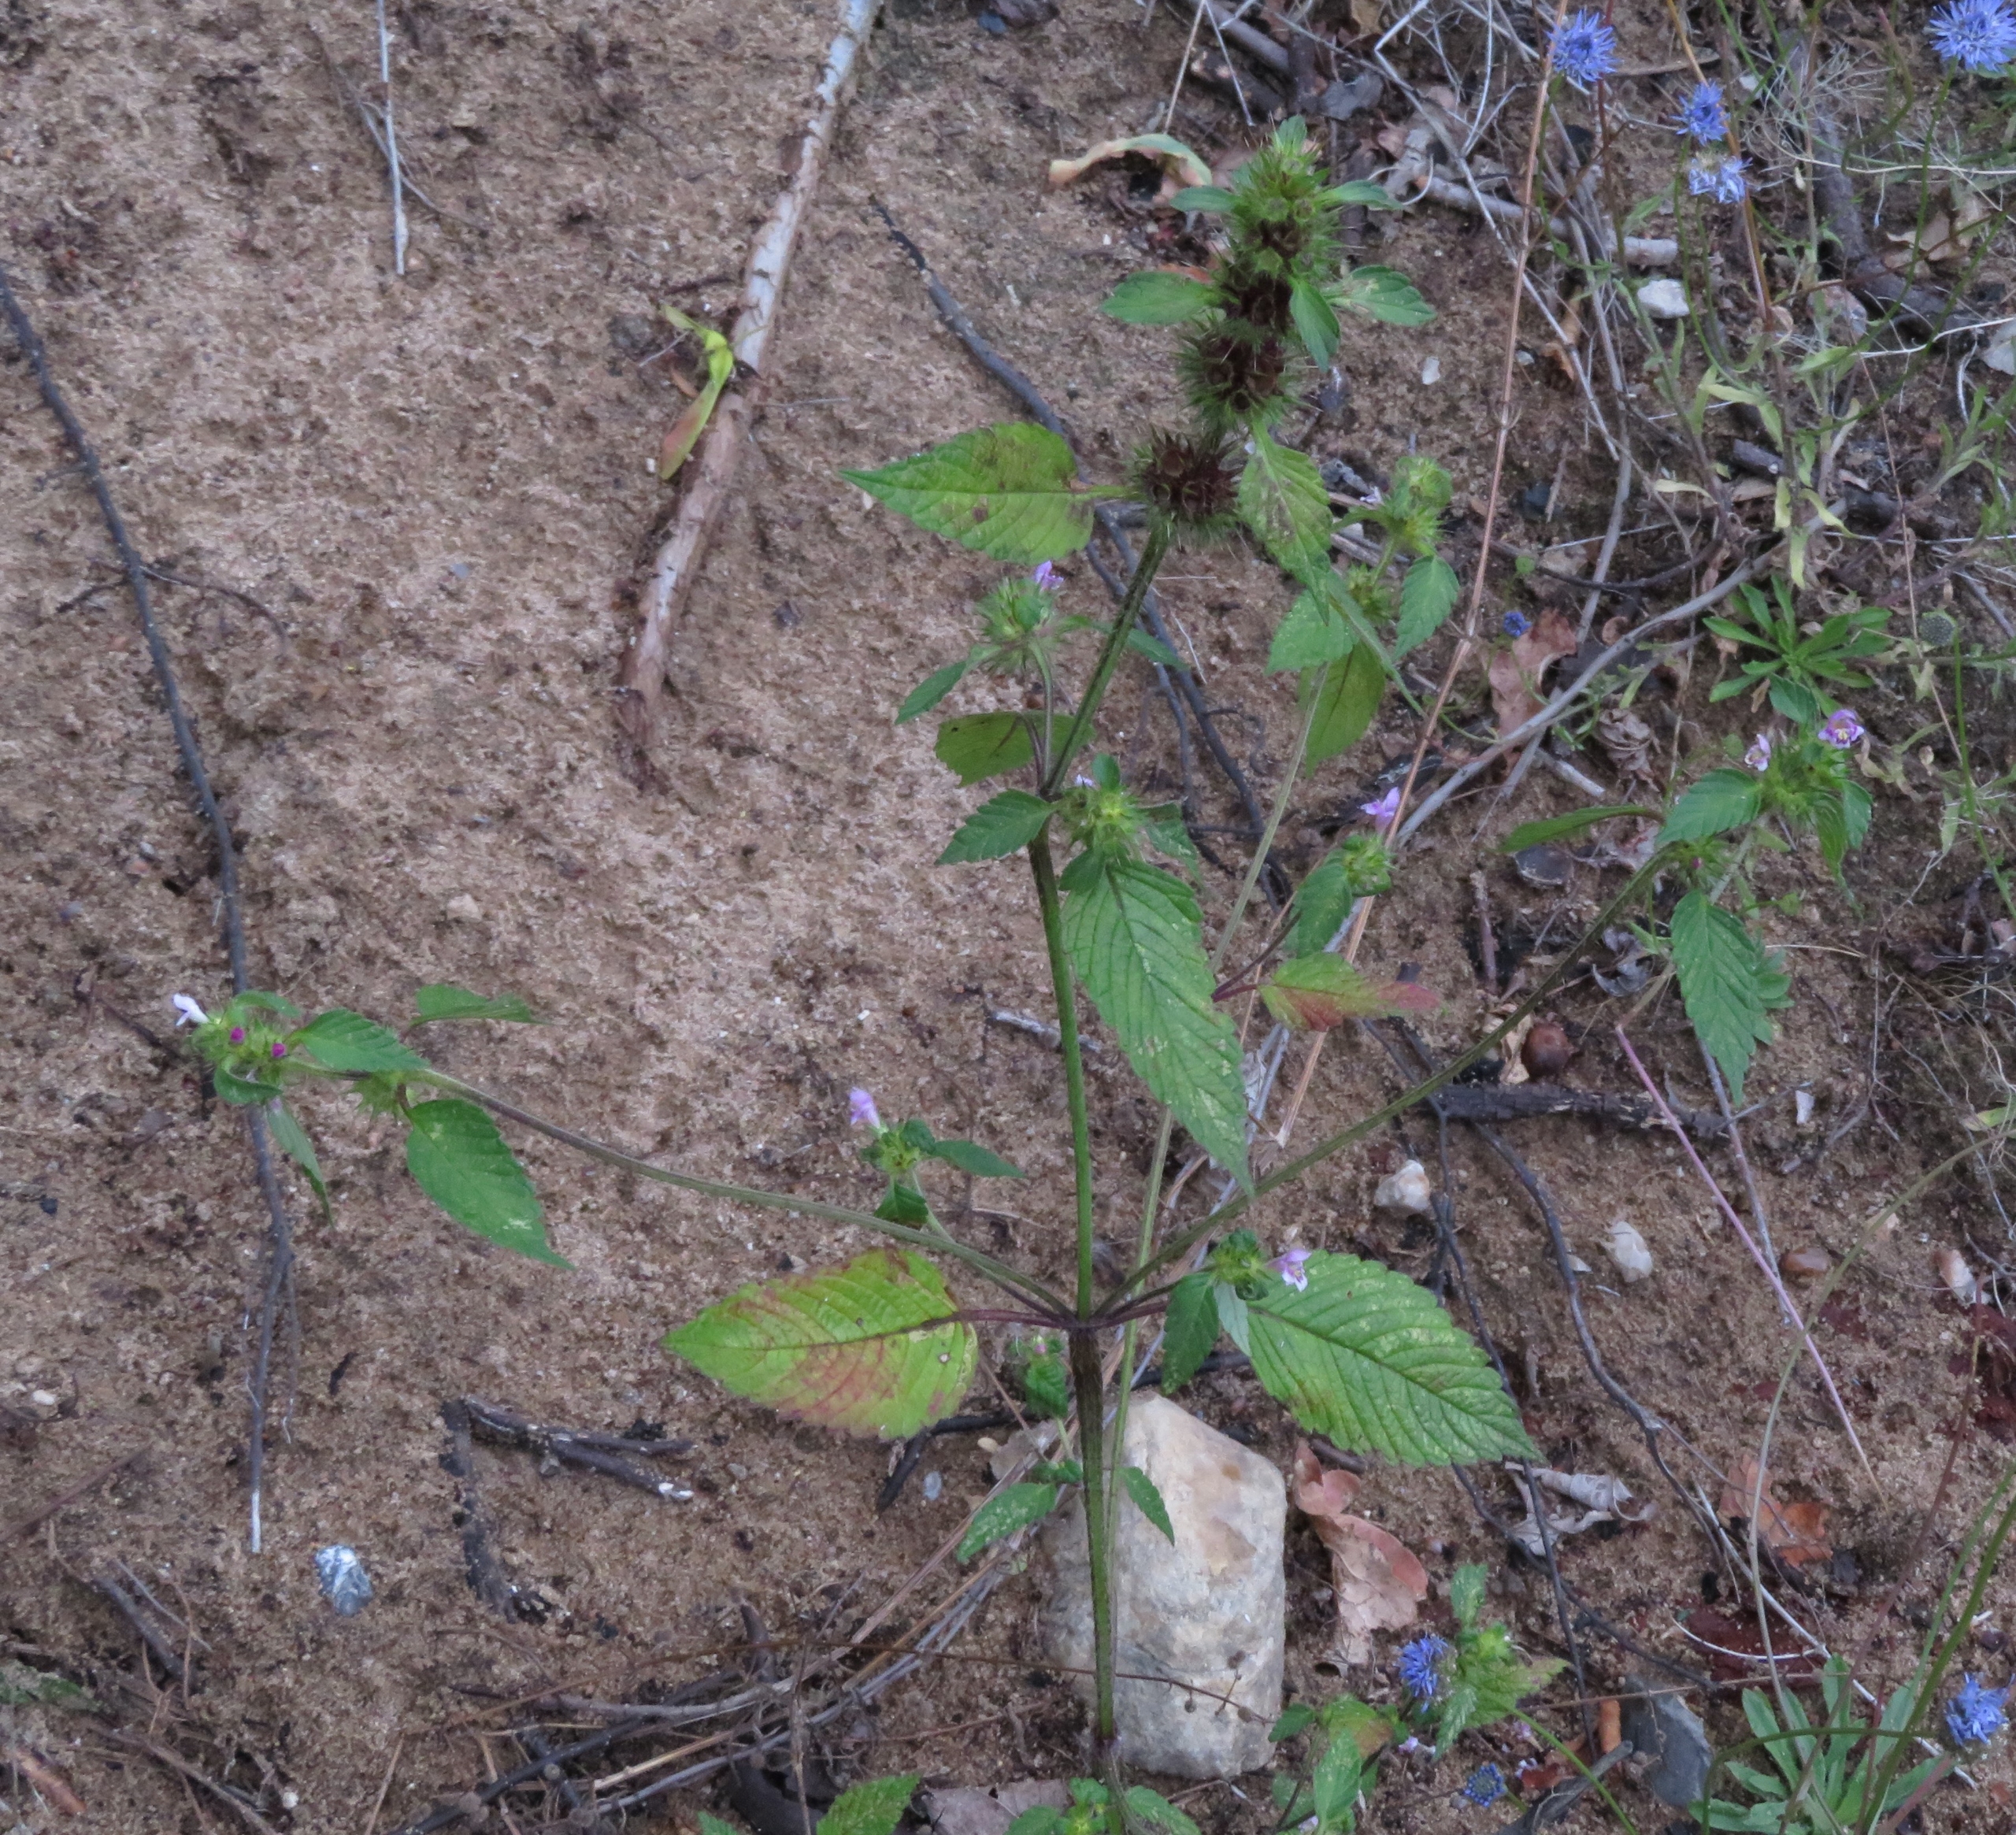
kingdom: Plantae
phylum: Tracheophyta
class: Magnoliopsida
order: Lamiales
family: Lamiaceae
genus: Galeopsis
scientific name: Galeopsis tetrahit
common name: Almindelig hanekro
